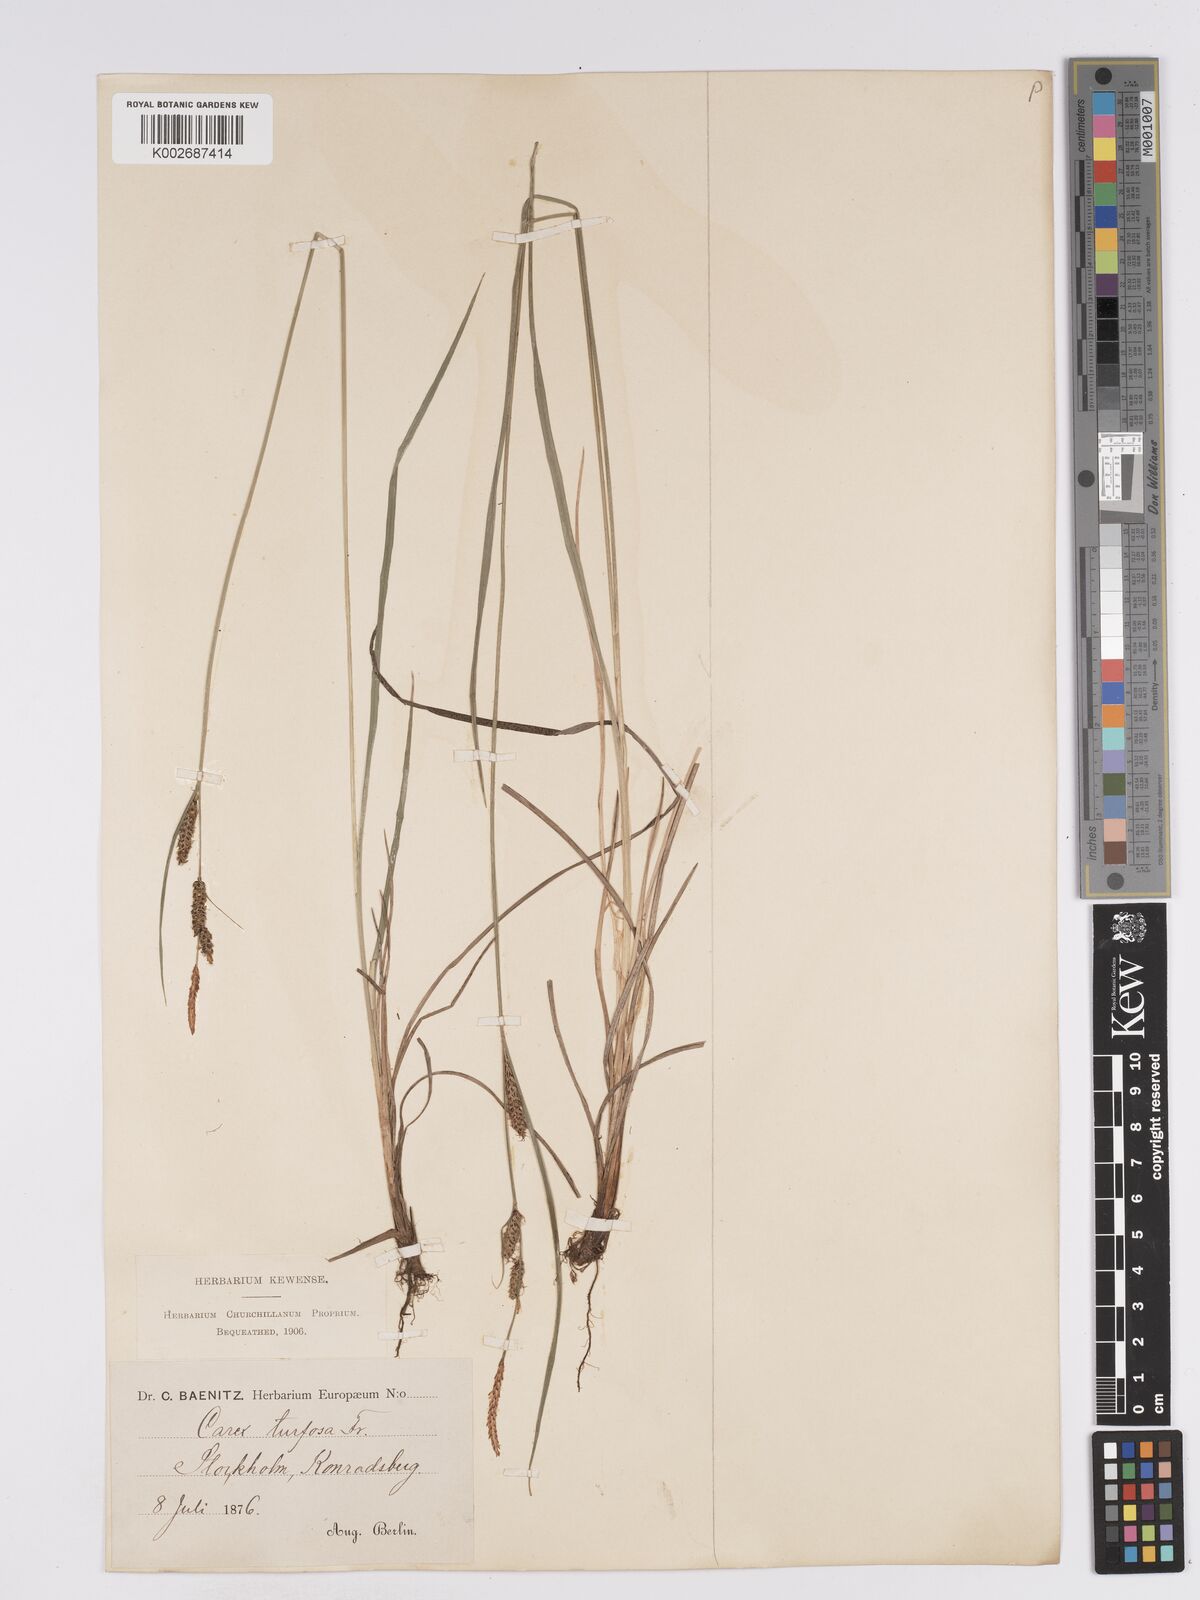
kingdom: Plantae
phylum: Tracheophyta
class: Liliopsida
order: Poales
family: Cyperaceae
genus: Carex
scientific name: Carex nigra
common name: Common sedge
